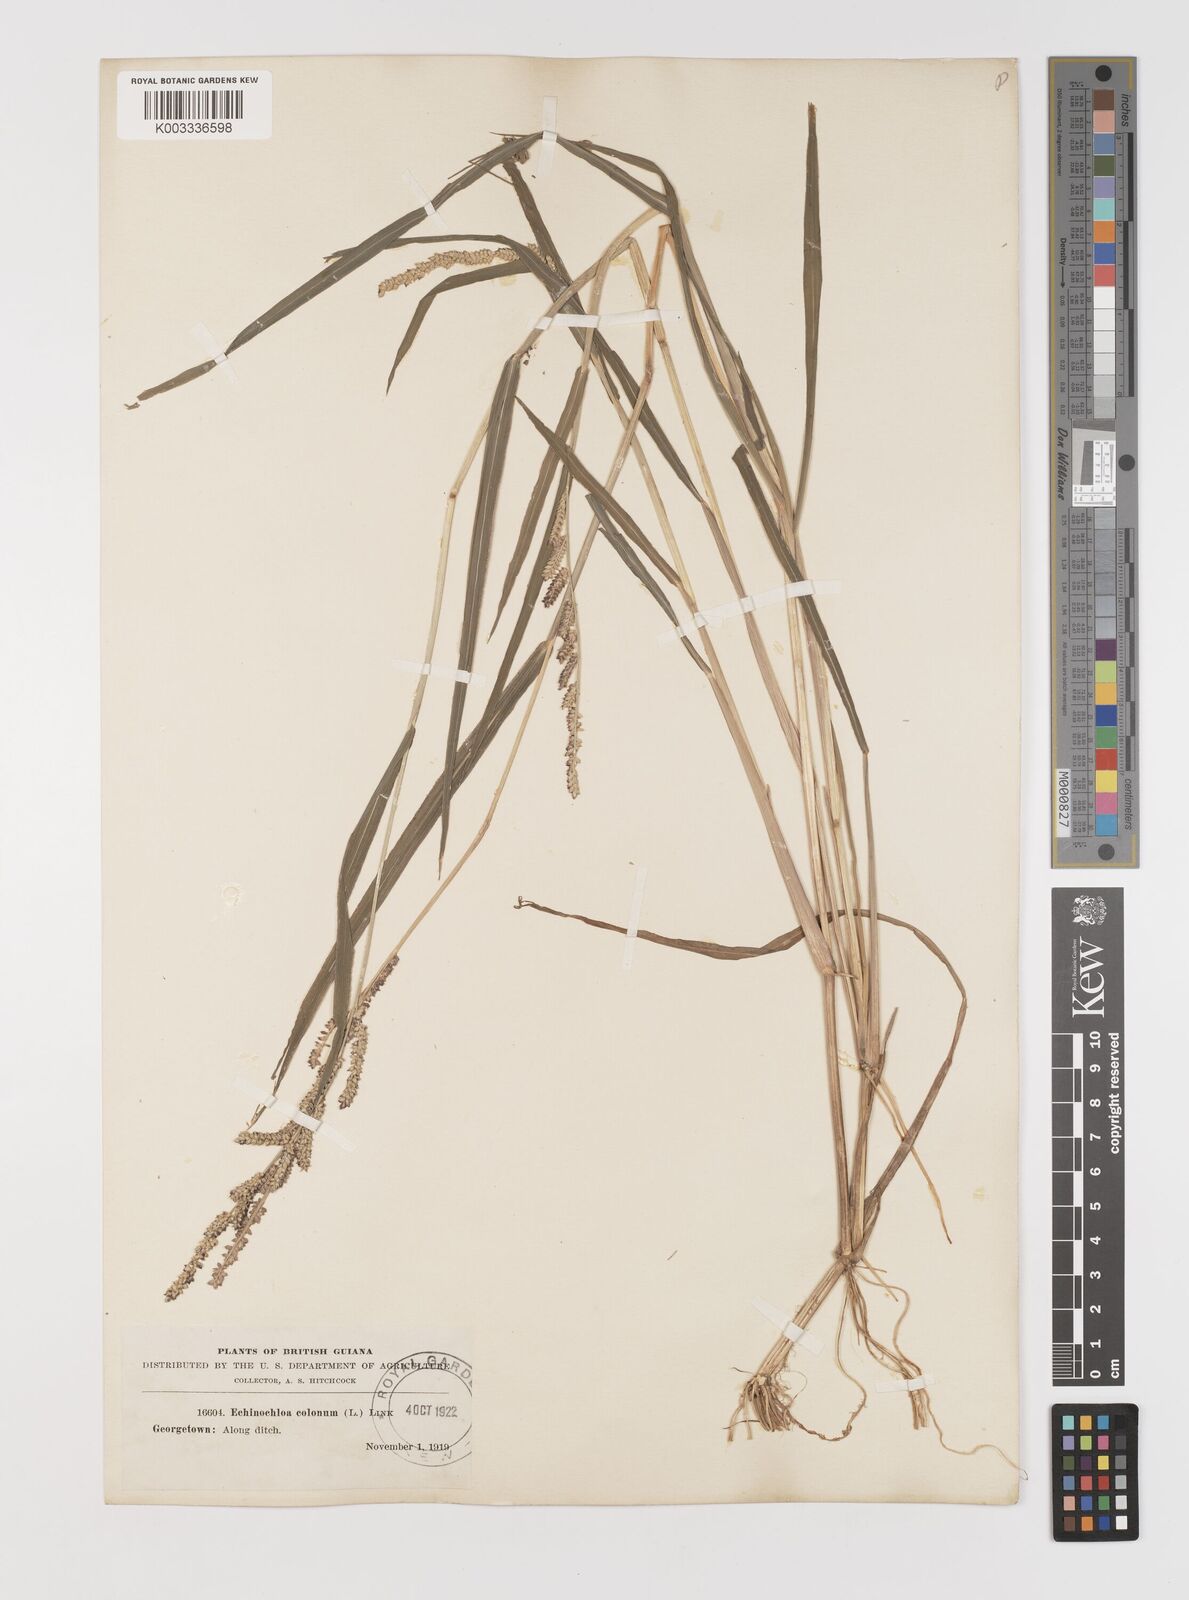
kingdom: Plantae
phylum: Tracheophyta
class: Liliopsida
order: Poales
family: Poaceae
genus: Echinochloa
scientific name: Echinochloa colonum
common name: Jungle rice
